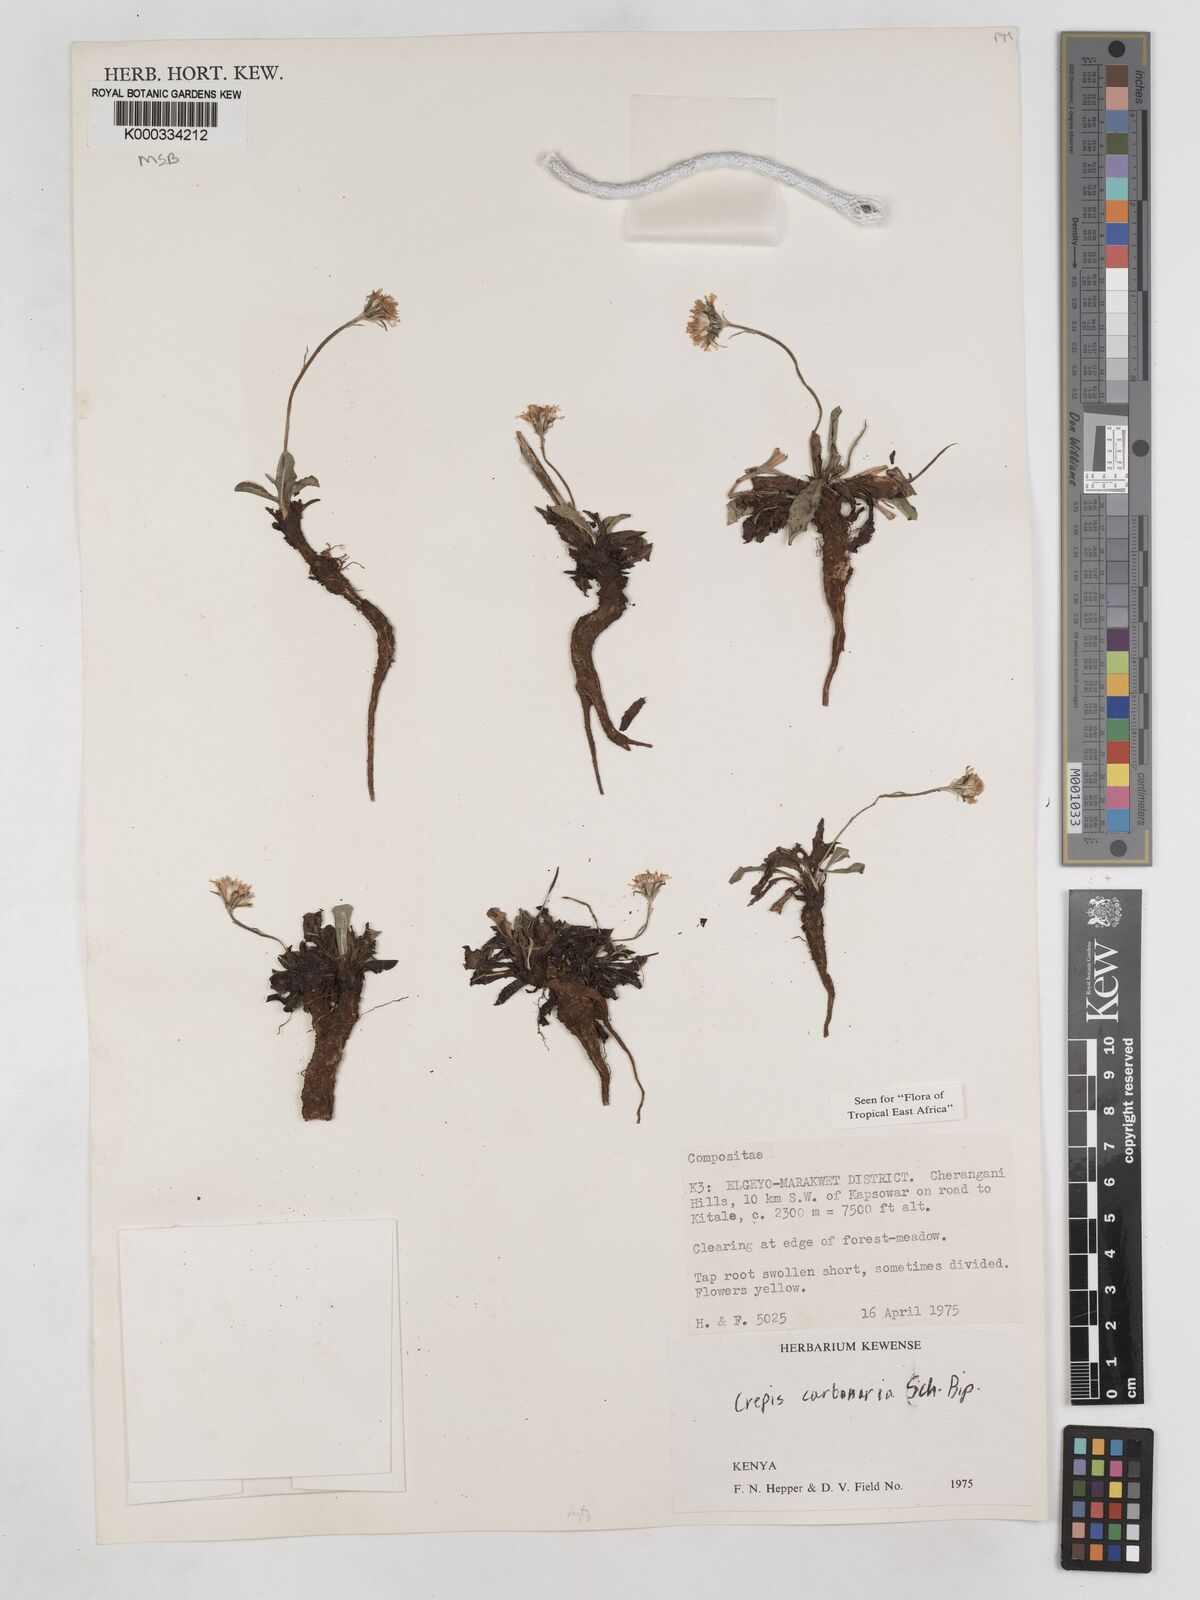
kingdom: Plantae
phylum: Tracheophyta
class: Magnoliopsida
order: Asterales
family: Asteraceae
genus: Crepis
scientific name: Crepis carbonaria
